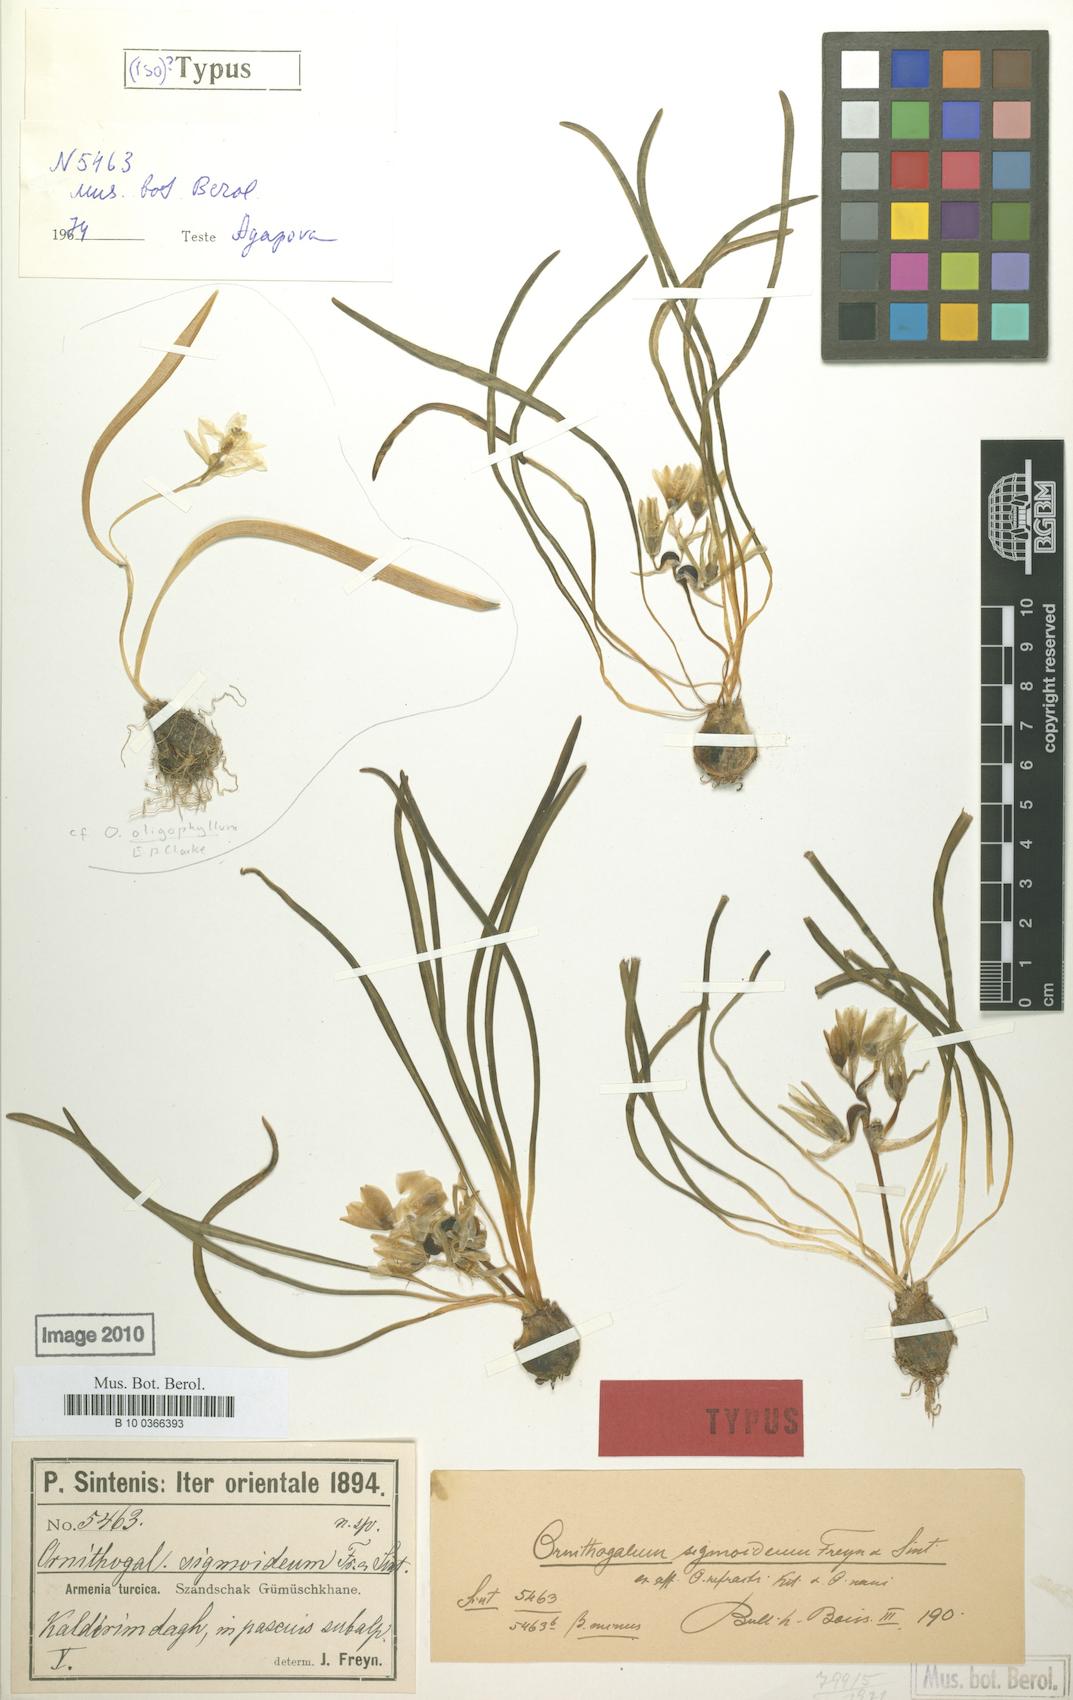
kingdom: Plantae
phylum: Tracheophyta
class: Liliopsida
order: Asparagales
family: Asparagaceae
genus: Ornithogalum
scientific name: Ornithogalum sigmoideum
